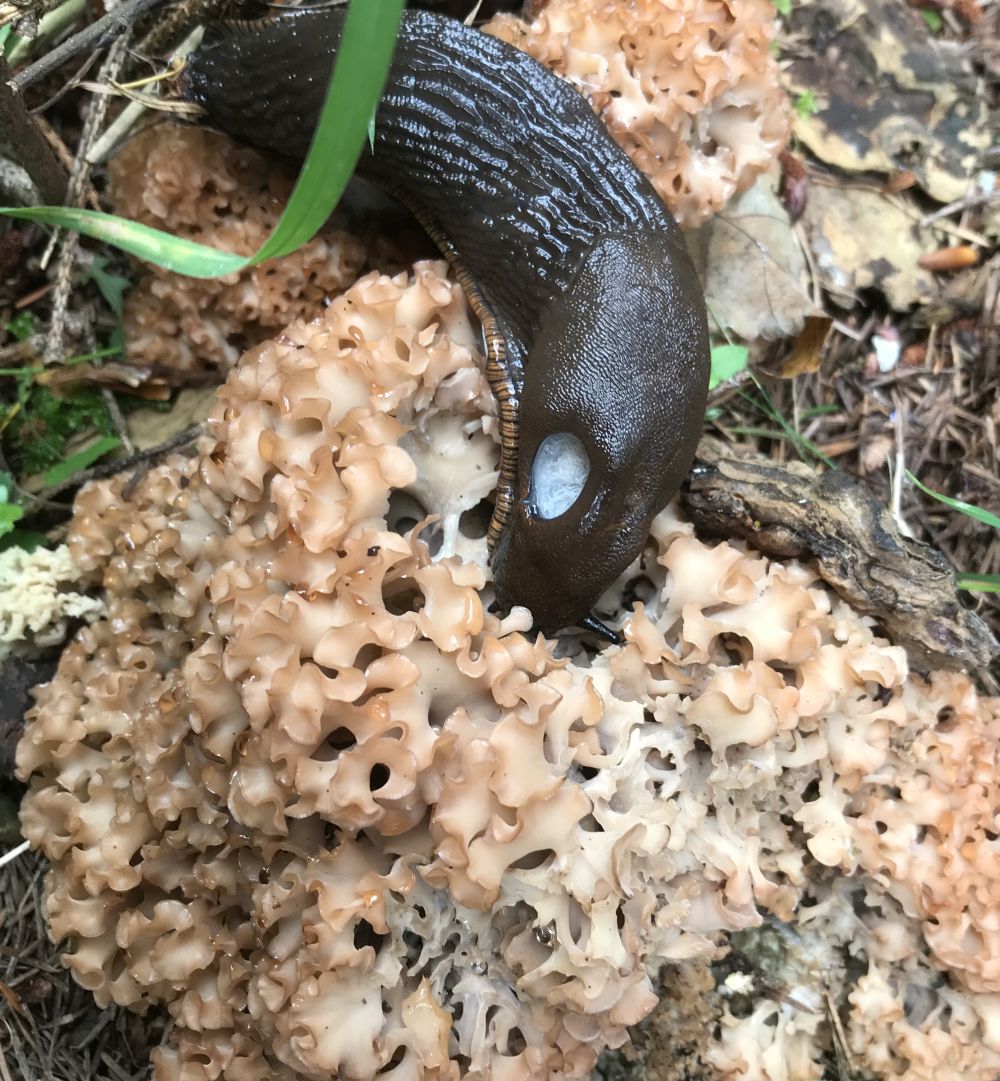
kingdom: Fungi
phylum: Basidiomycota
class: Agaricomycetes
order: Polyporales
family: Sparassidaceae
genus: Sparassis
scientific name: Sparassis crispa
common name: kruset blomkålssvamp
